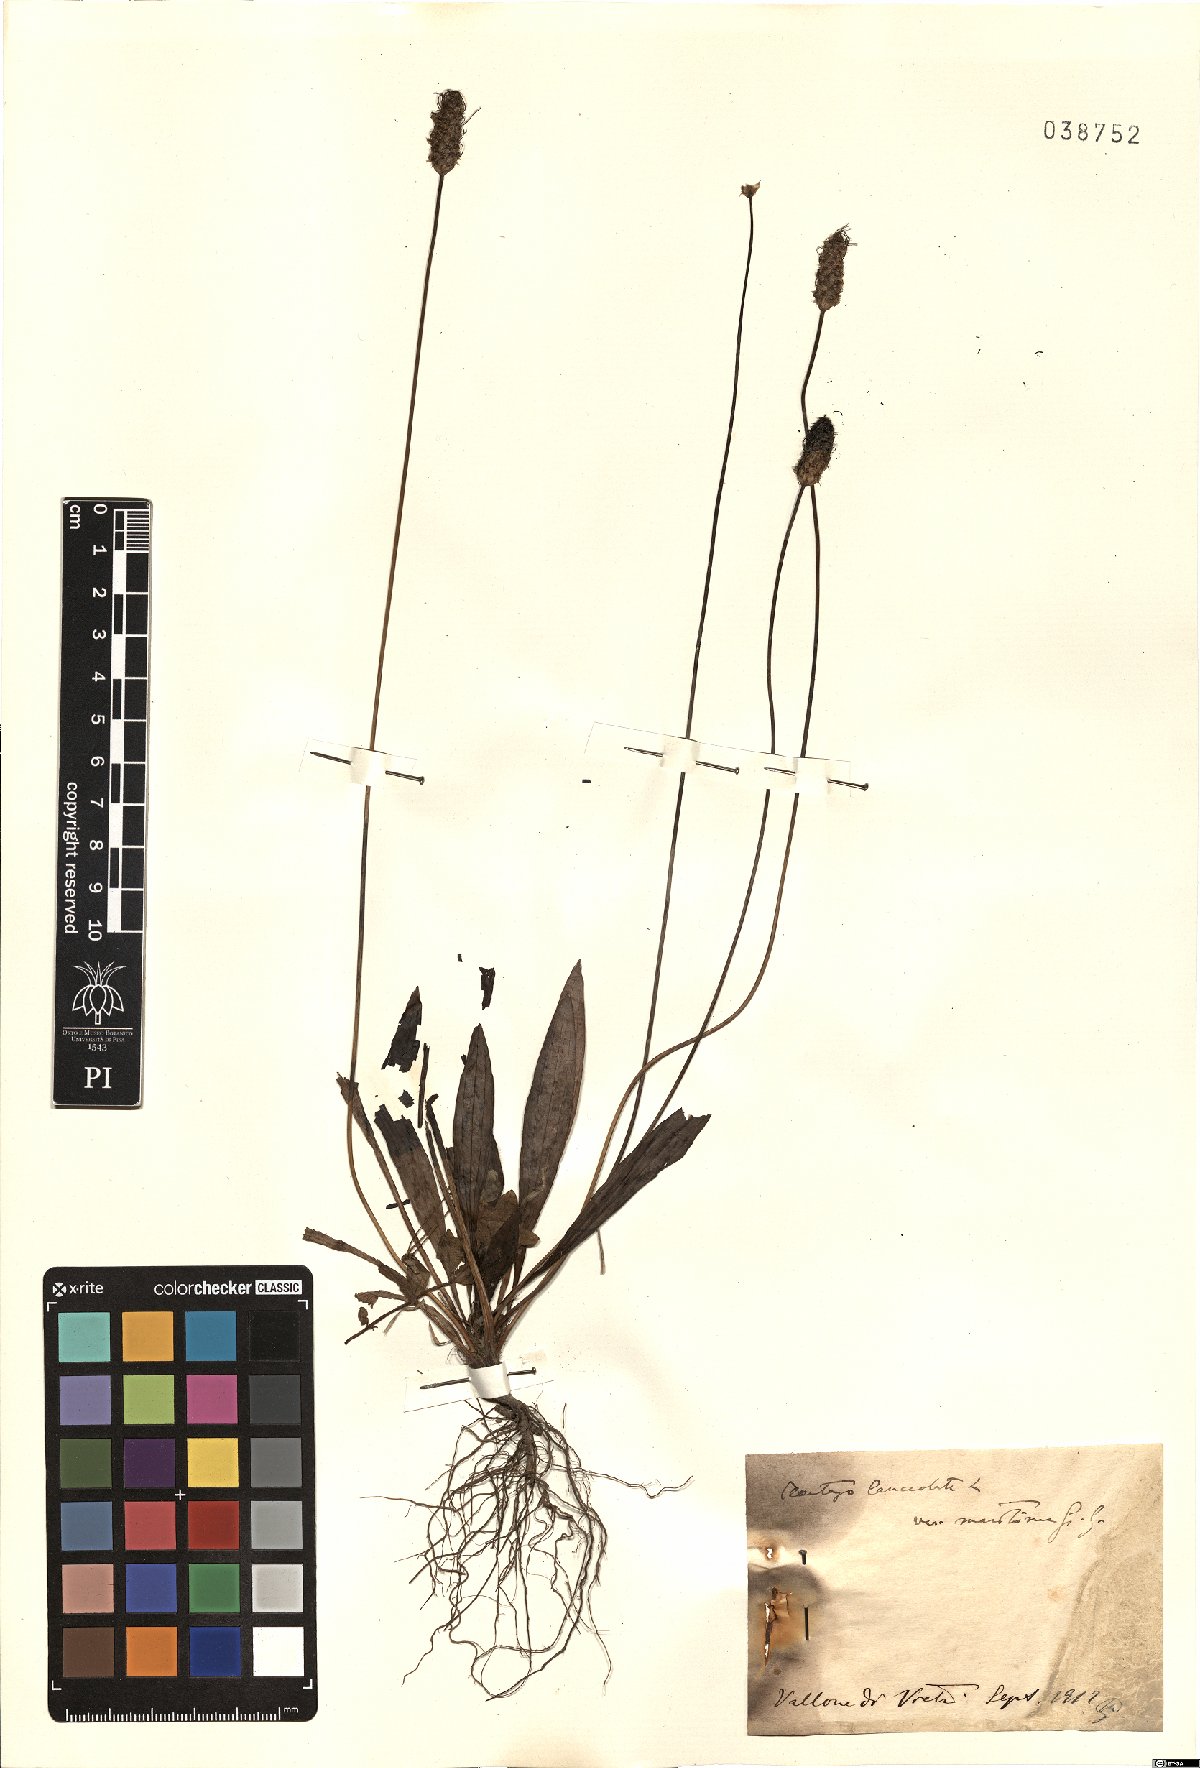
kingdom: Plantae
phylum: Tracheophyta
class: Magnoliopsida
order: Lamiales
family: Plantaginaceae
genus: Plantago
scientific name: Plantago lanceolata
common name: Ribwort plantain
